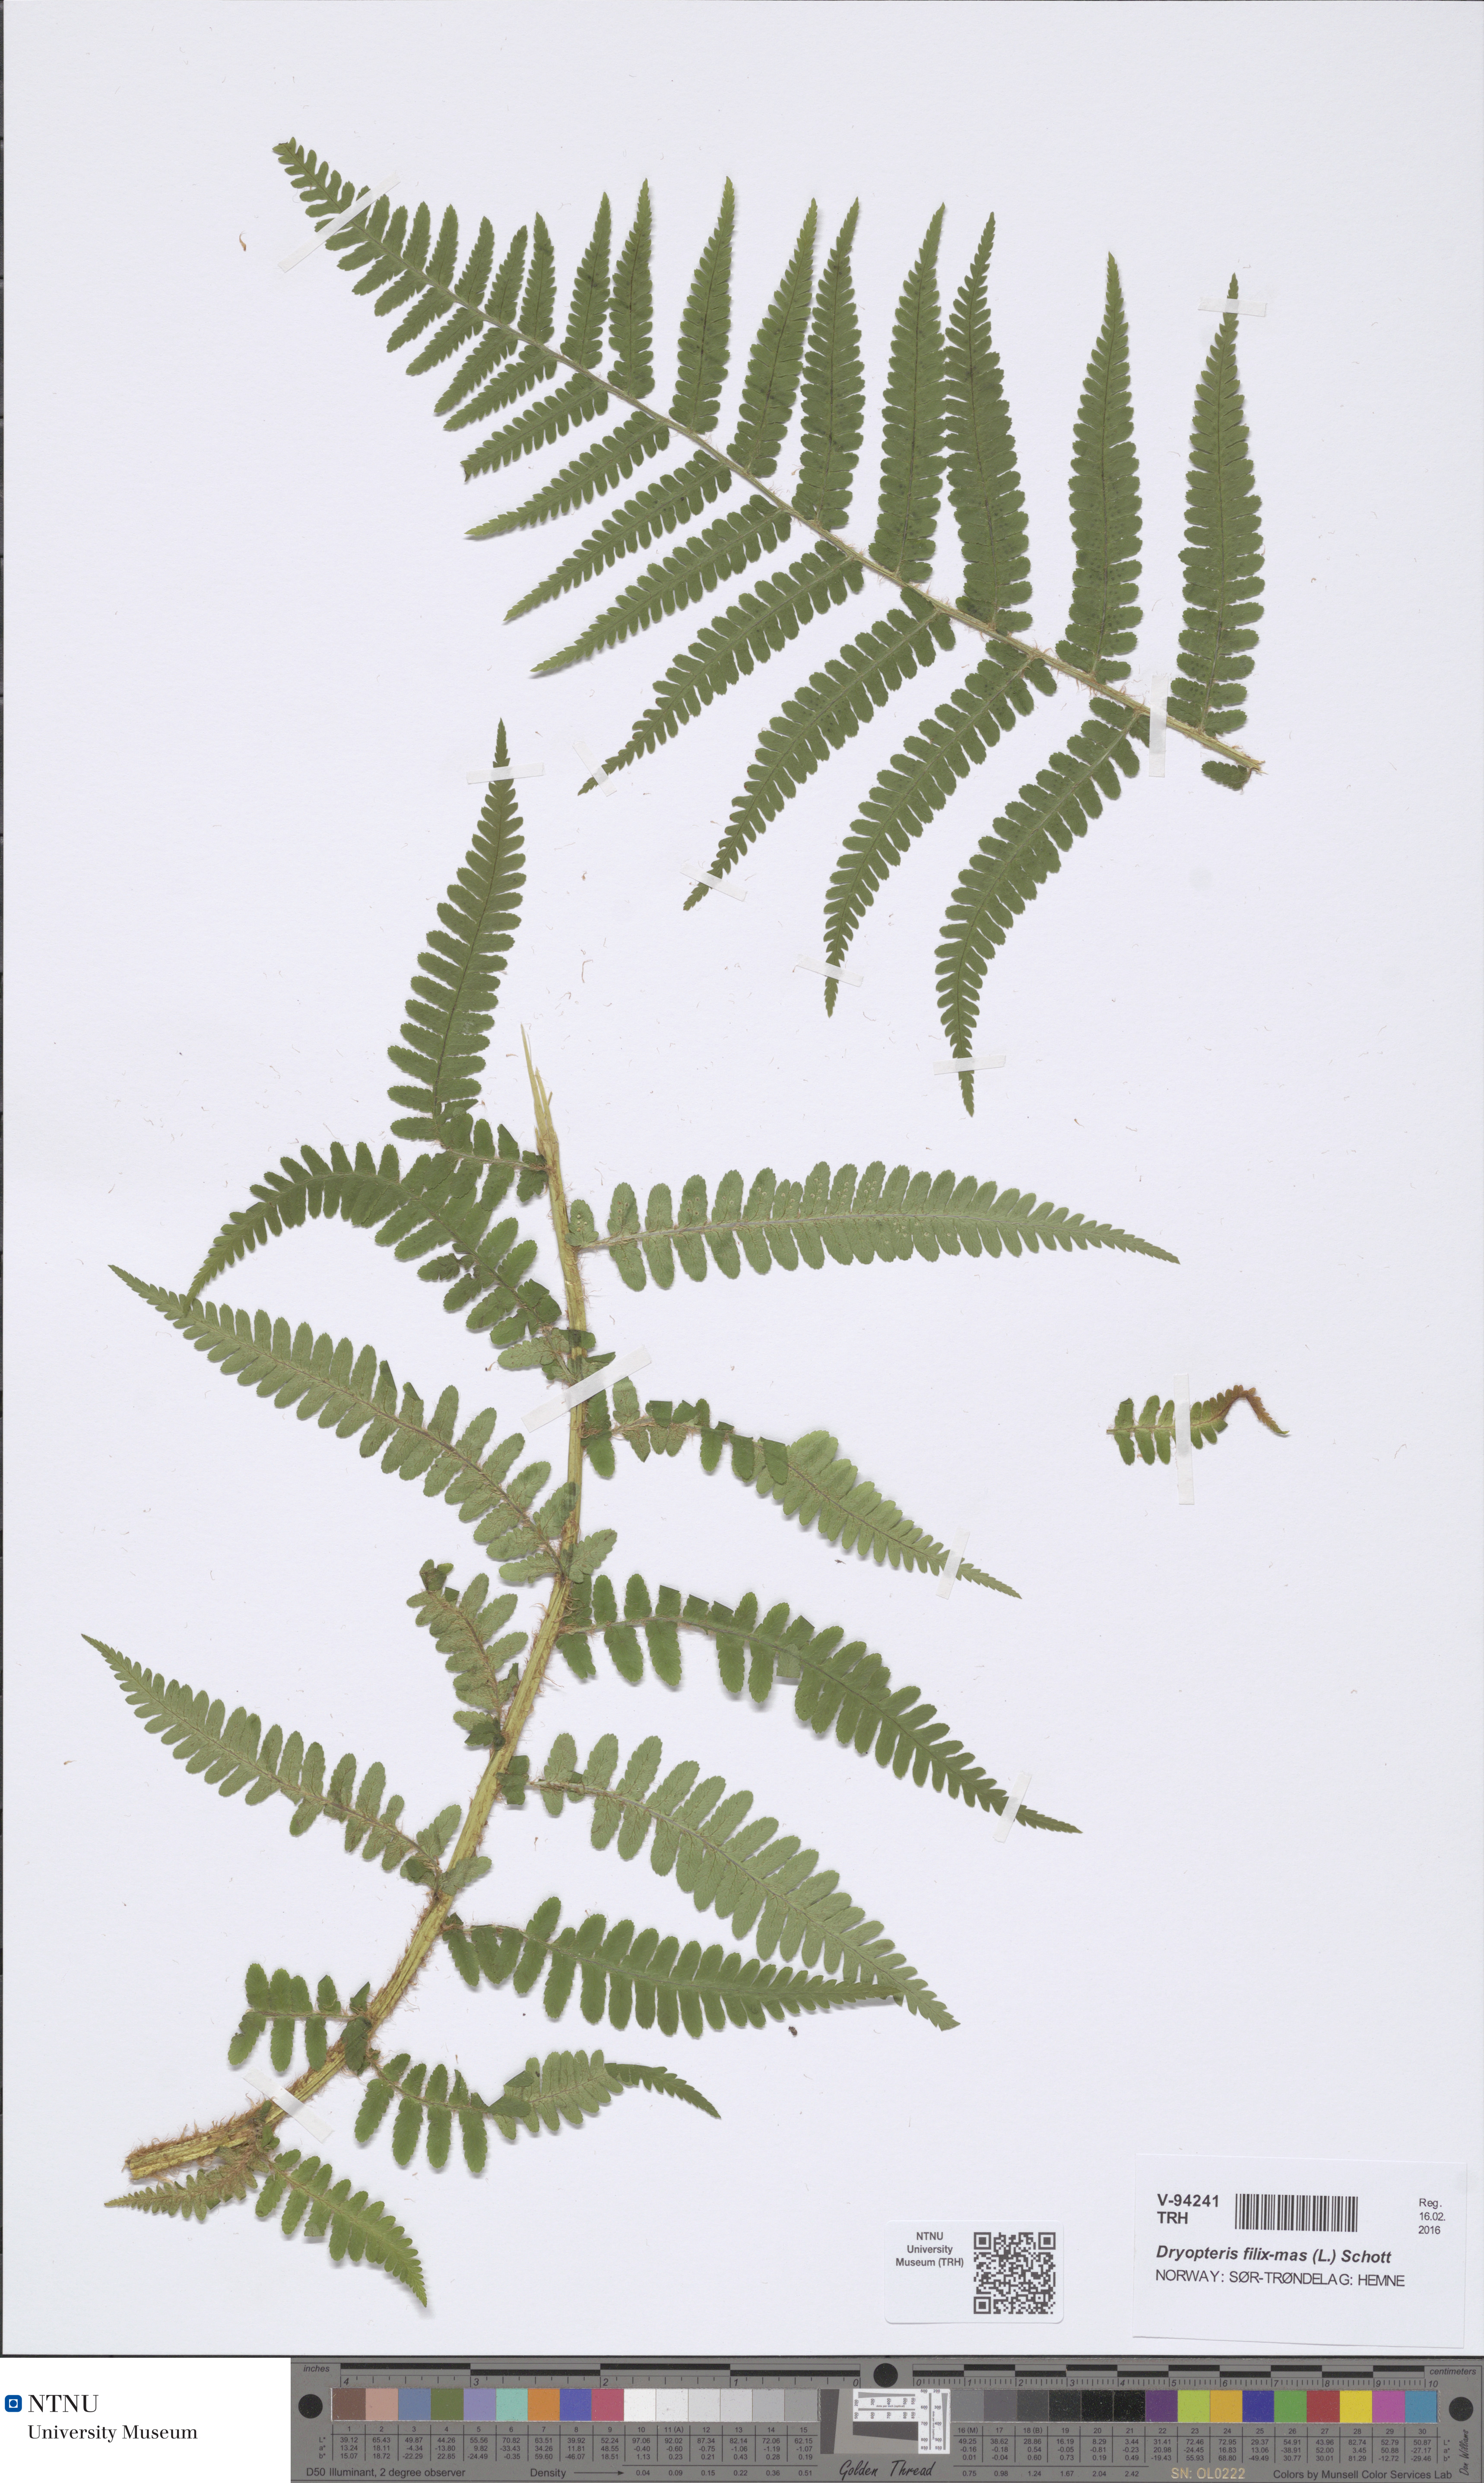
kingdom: Plantae
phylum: Tracheophyta
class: Polypodiopsida
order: Polypodiales
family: Dryopteridaceae
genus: Dryopteris
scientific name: Dryopteris filix-mas
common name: Male fern
